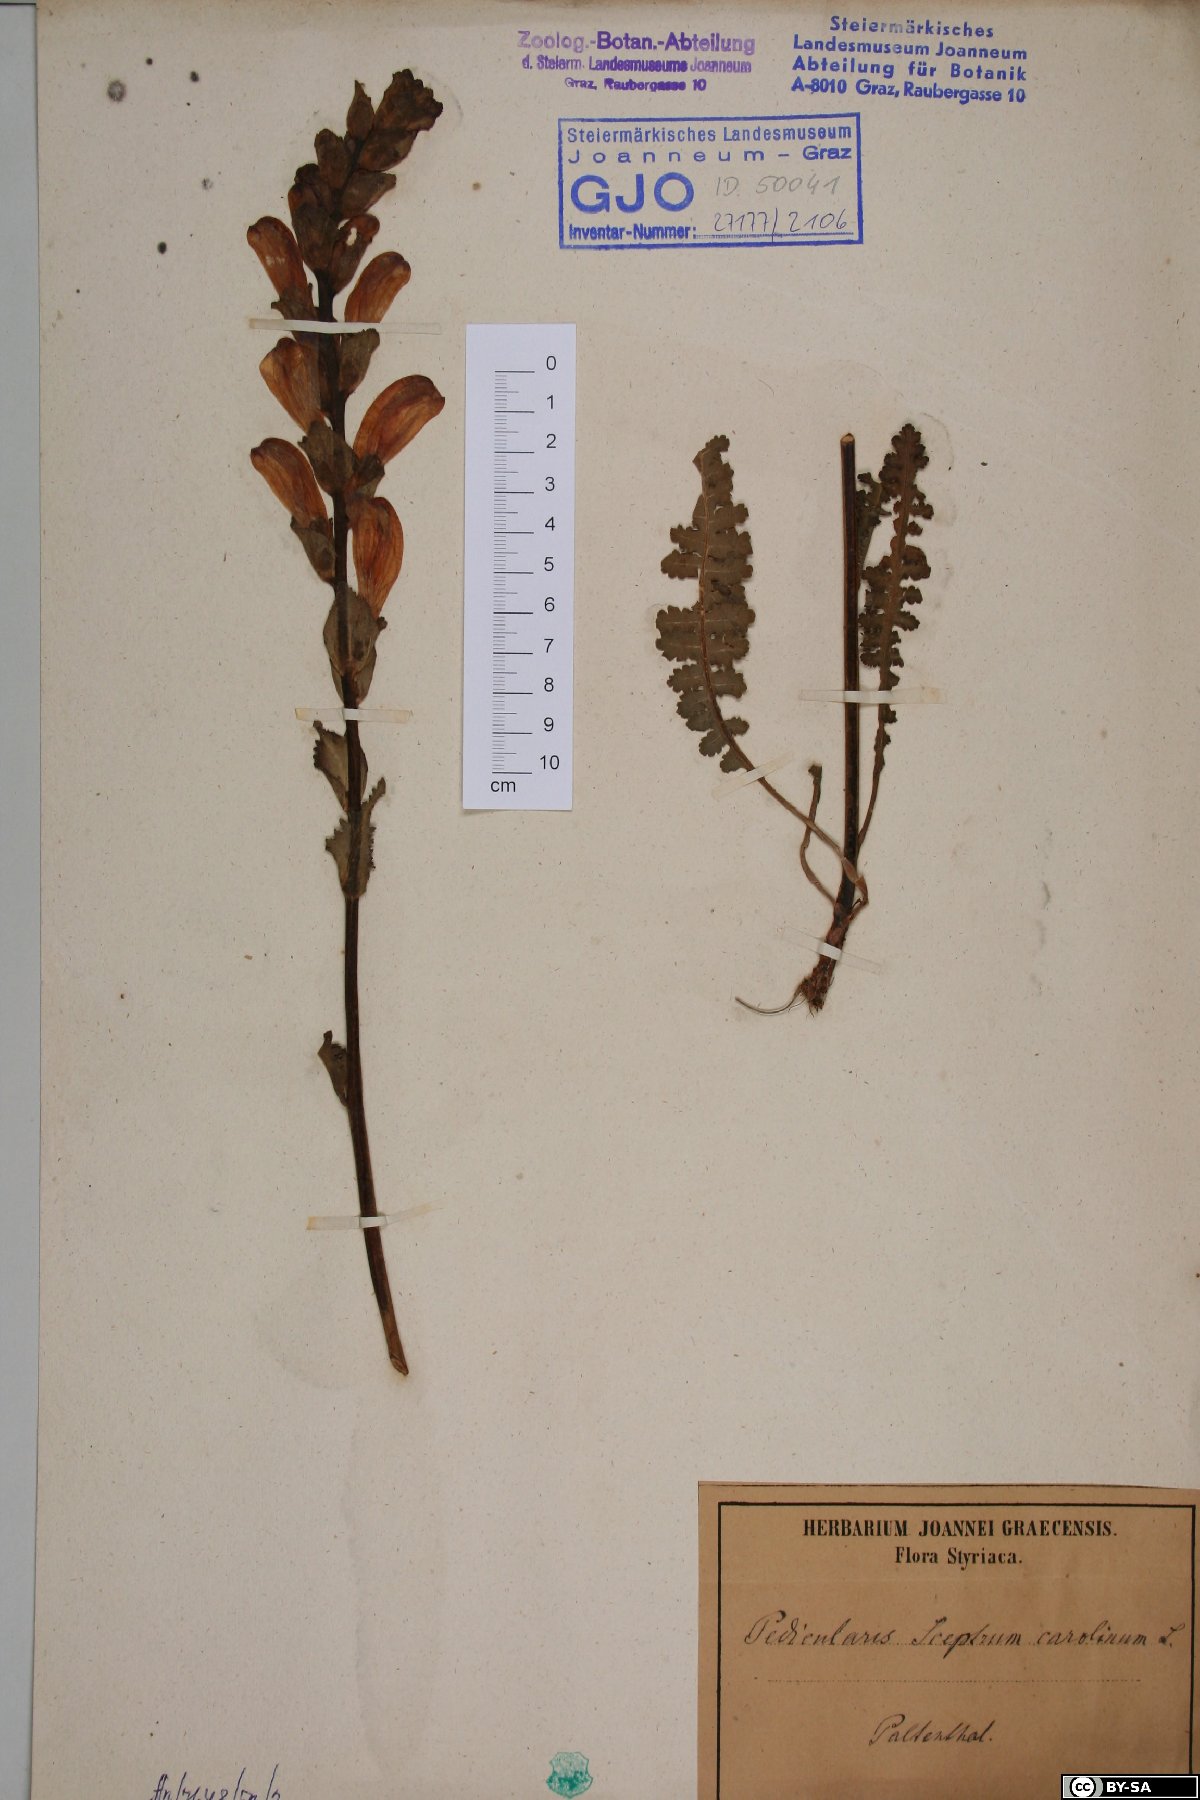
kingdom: Plantae
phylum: Tracheophyta
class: Magnoliopsida
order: Lamiales
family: Orobanchaceae
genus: Pedicularis
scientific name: Pedicularis sceptrum-carolinum
